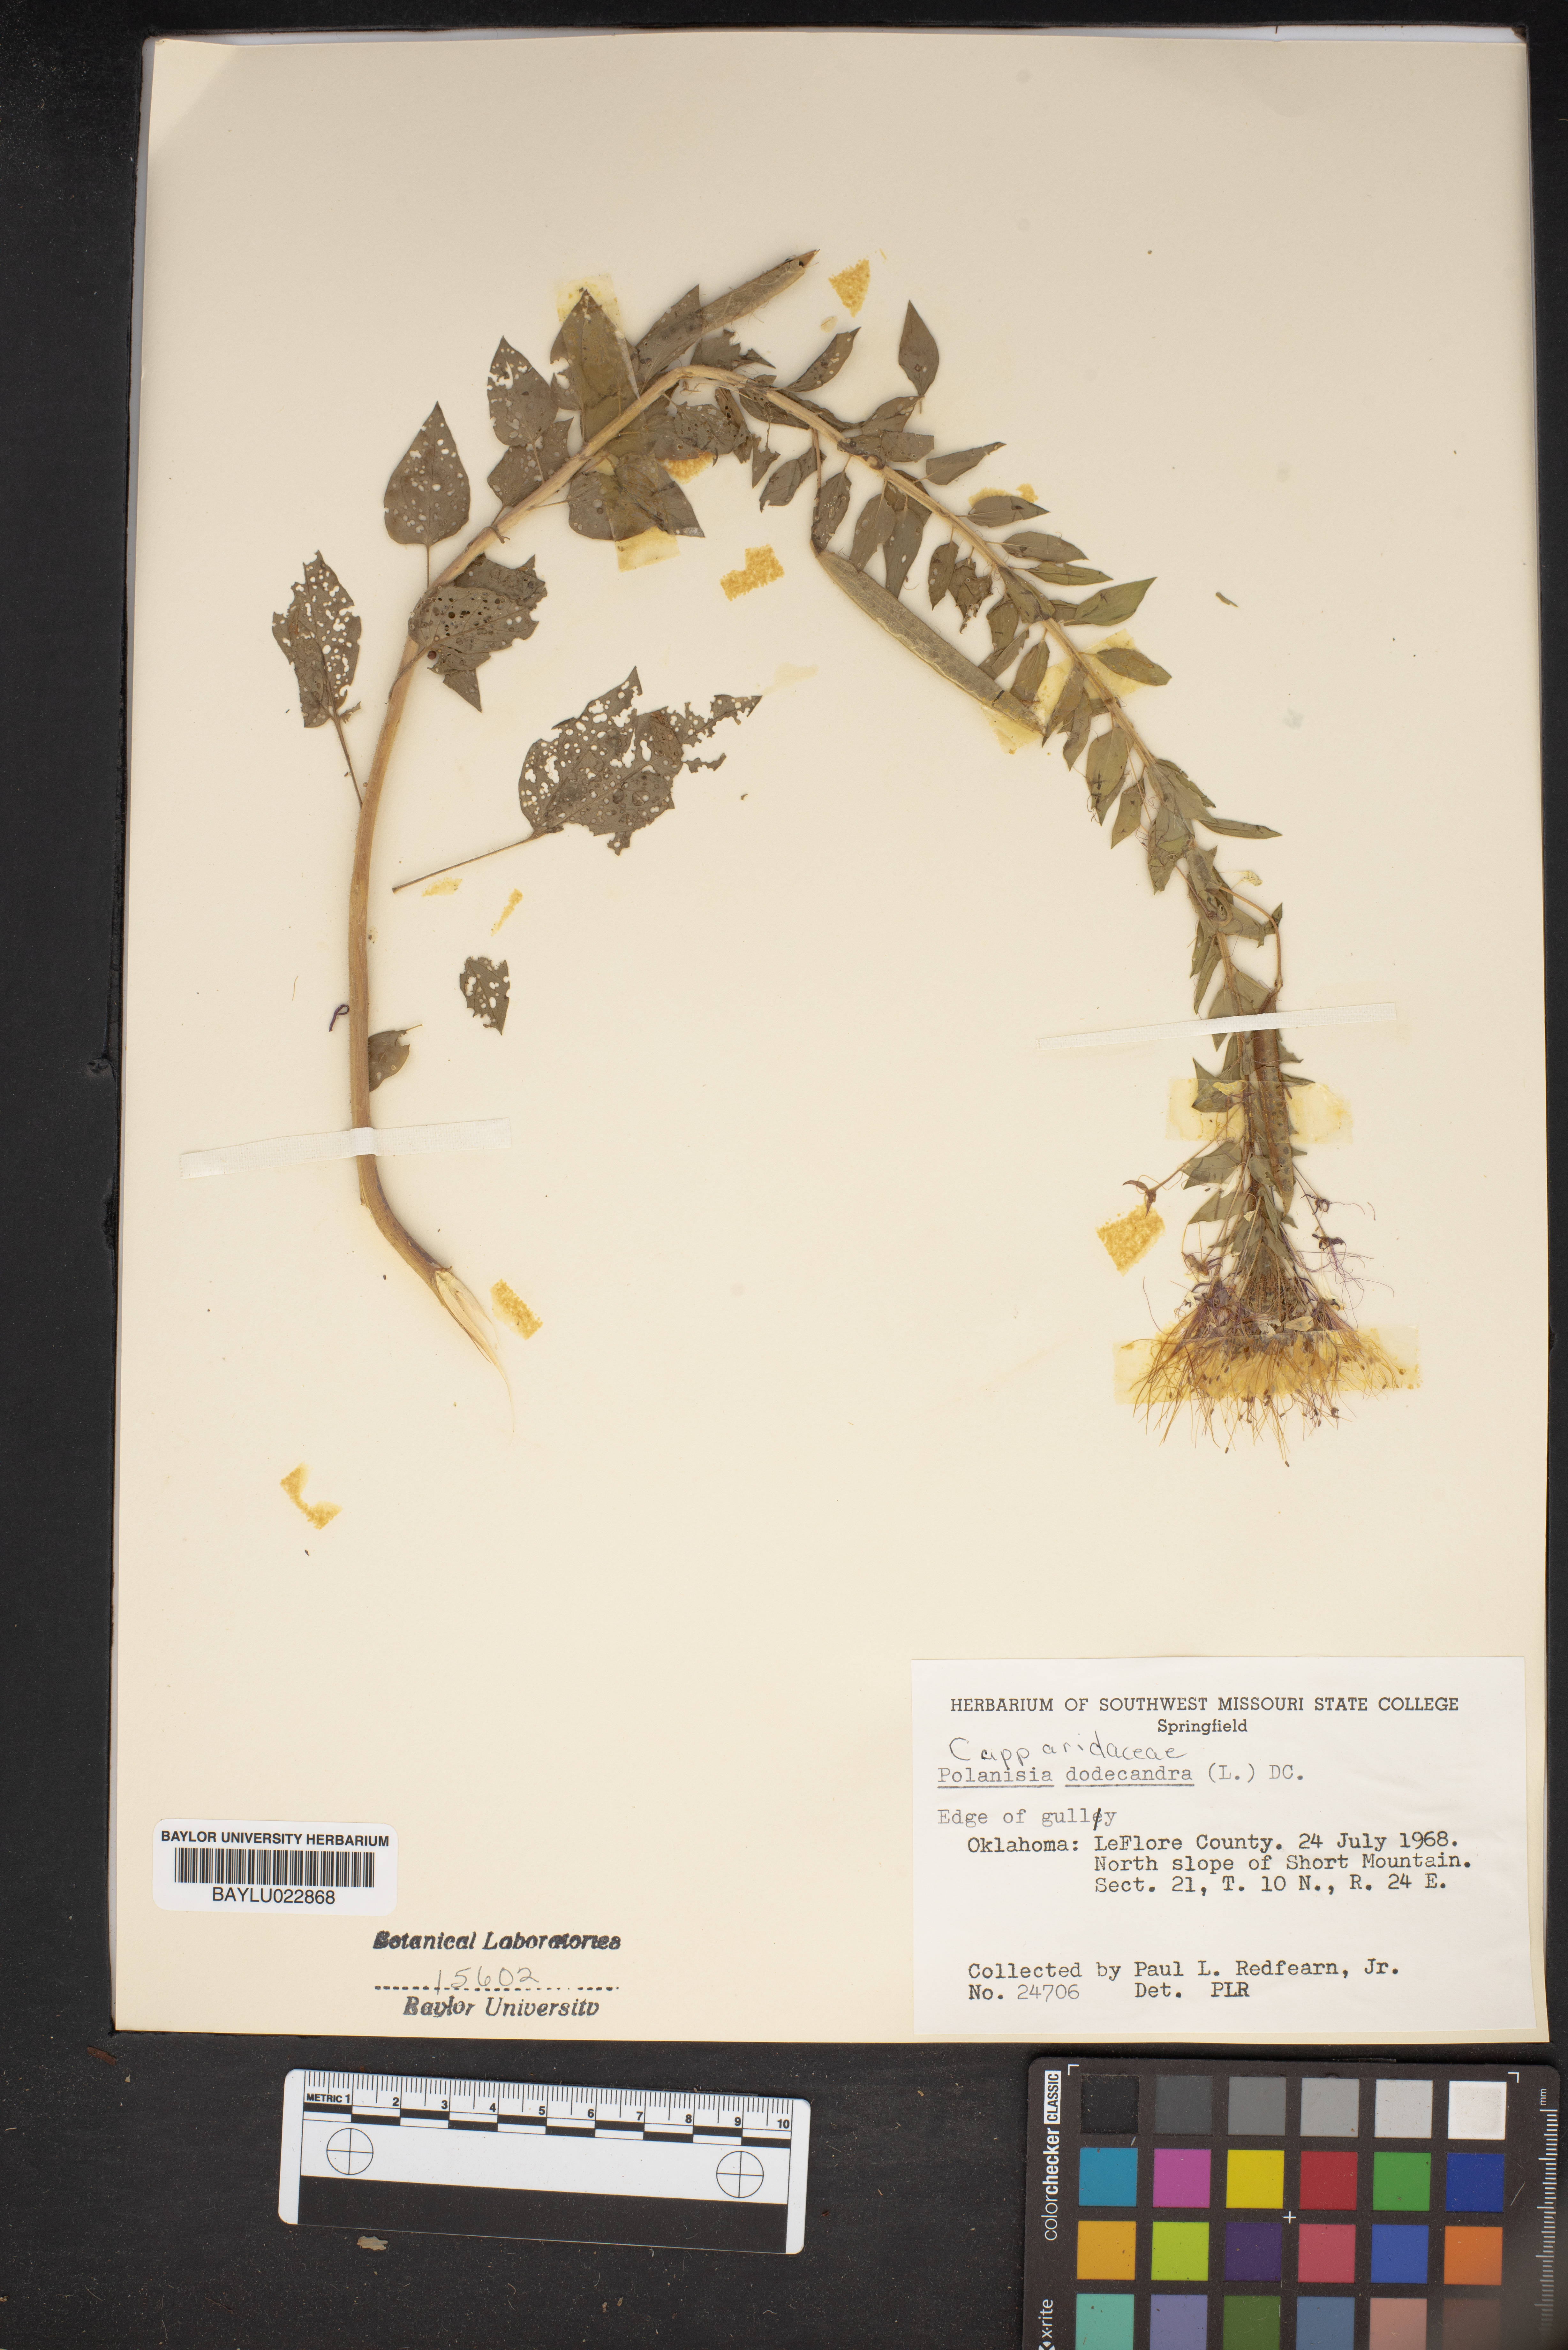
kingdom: Plantae
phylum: Tracheophyta
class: Magnoliopsida
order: Brassicales
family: Cleomaceae
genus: Polanisia
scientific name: Polanisia dodecandra
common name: Clammyweed
